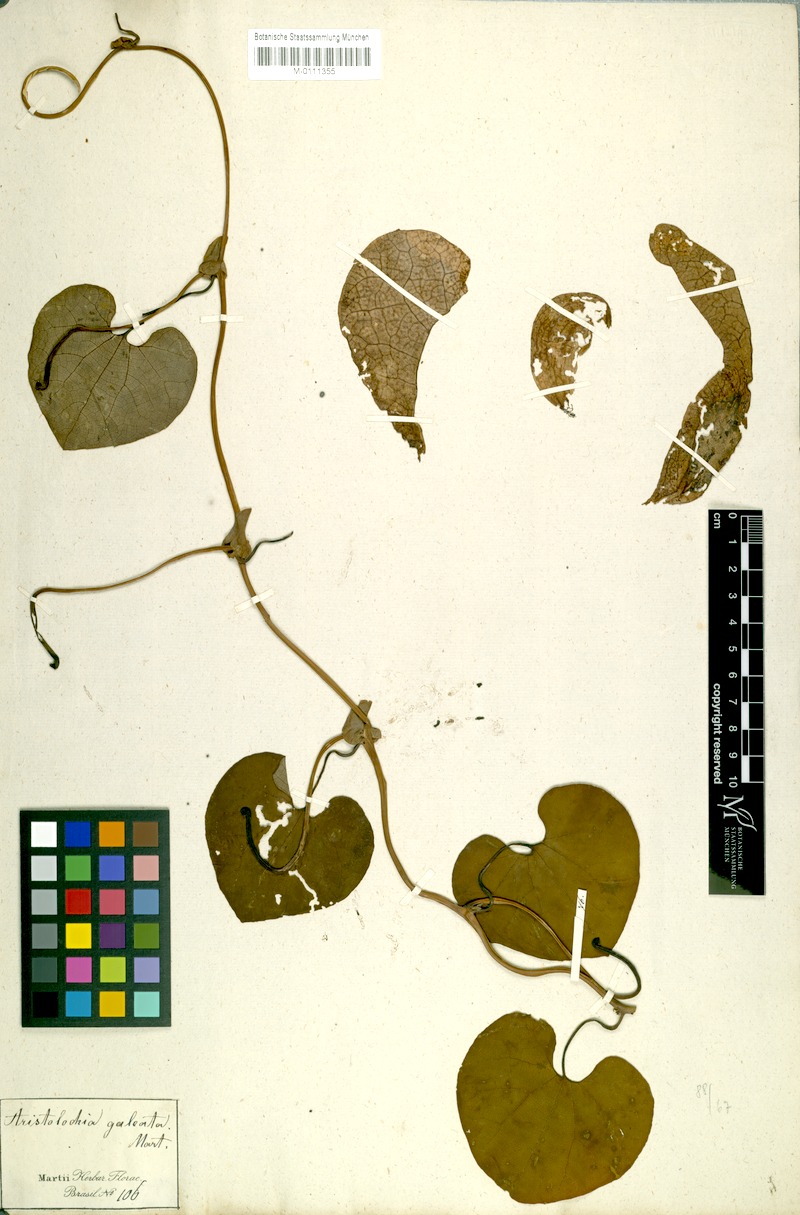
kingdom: Plantae
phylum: Tracheophyta
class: Magnoliopsida
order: Piperales
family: Aristolochiaceae
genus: Aristolochia
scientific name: Aristolochia labiata
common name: Mottled dutchman's pipe
